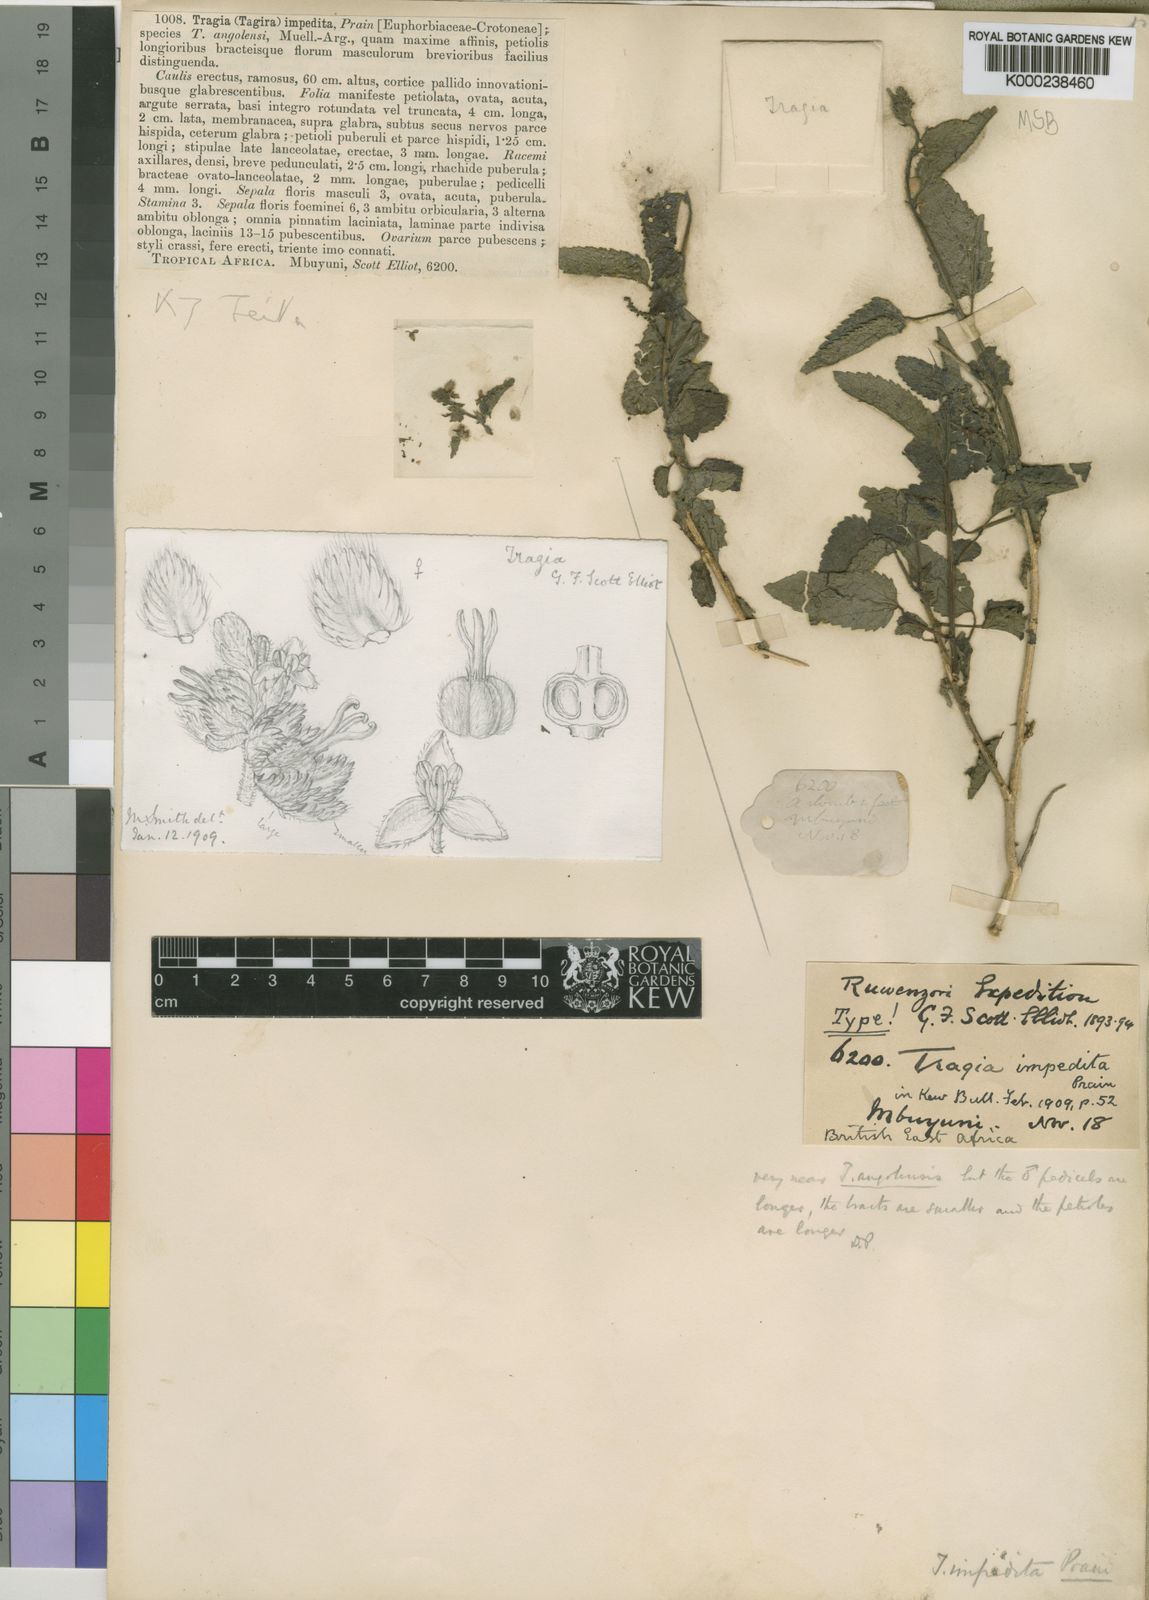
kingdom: Plantae
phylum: Tracheophyta
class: Magnoliopsida
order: Malpighiales
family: Euphorbiaceae
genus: Tragia
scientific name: Tragia impedita
